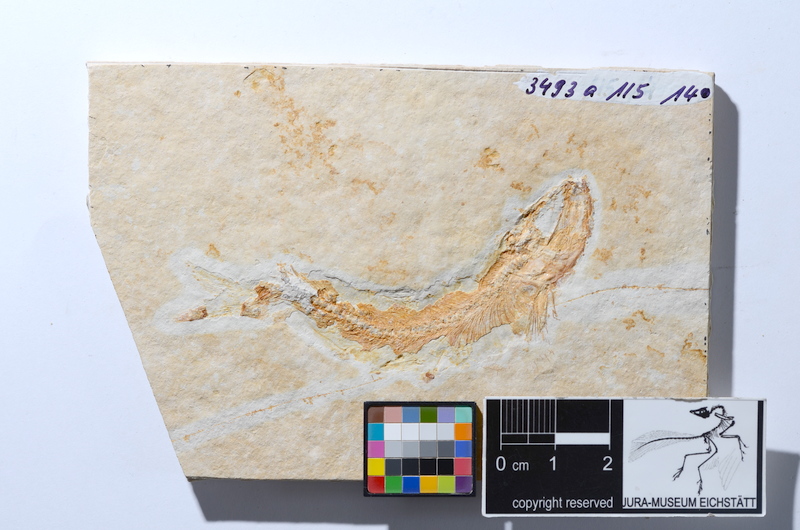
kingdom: Animalia
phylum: Chordata
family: Ascalaboidae
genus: Tharsis
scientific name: Tharsis dubius
